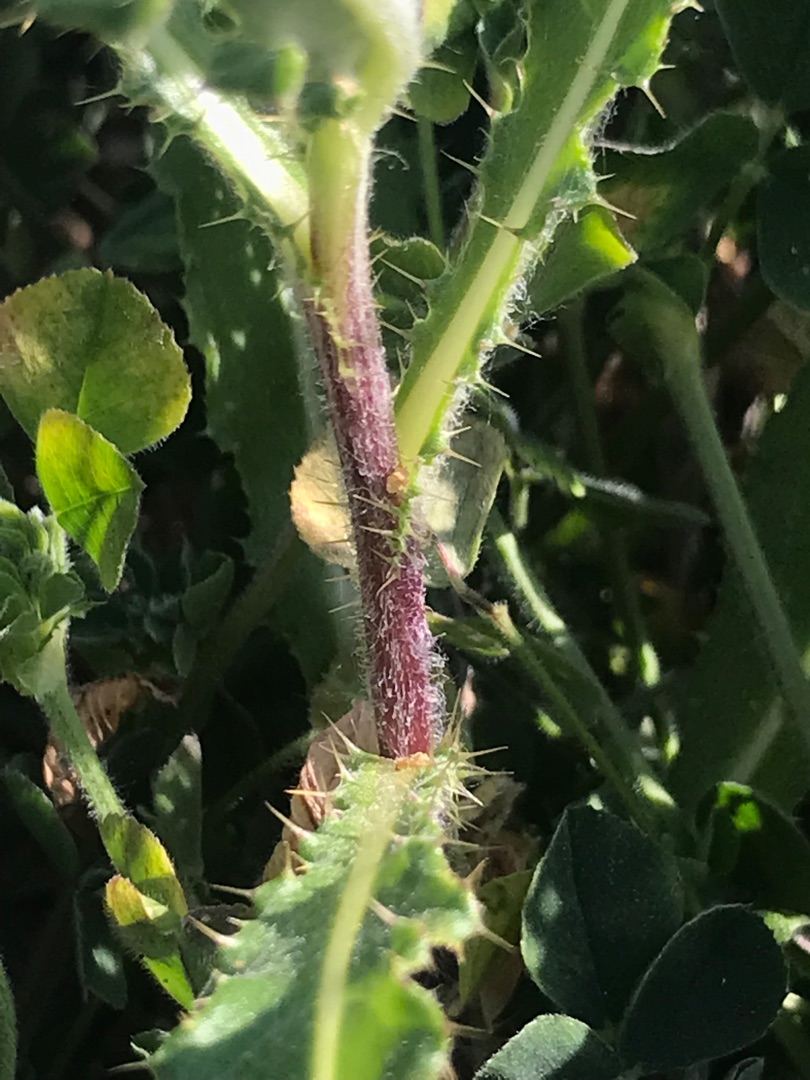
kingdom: Plantae
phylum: Tracheophyta
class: Magnoliopsida
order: Asterales
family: Asteraceae
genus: Cirsium
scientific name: Cirsium arvense
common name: Ager-tidsel
